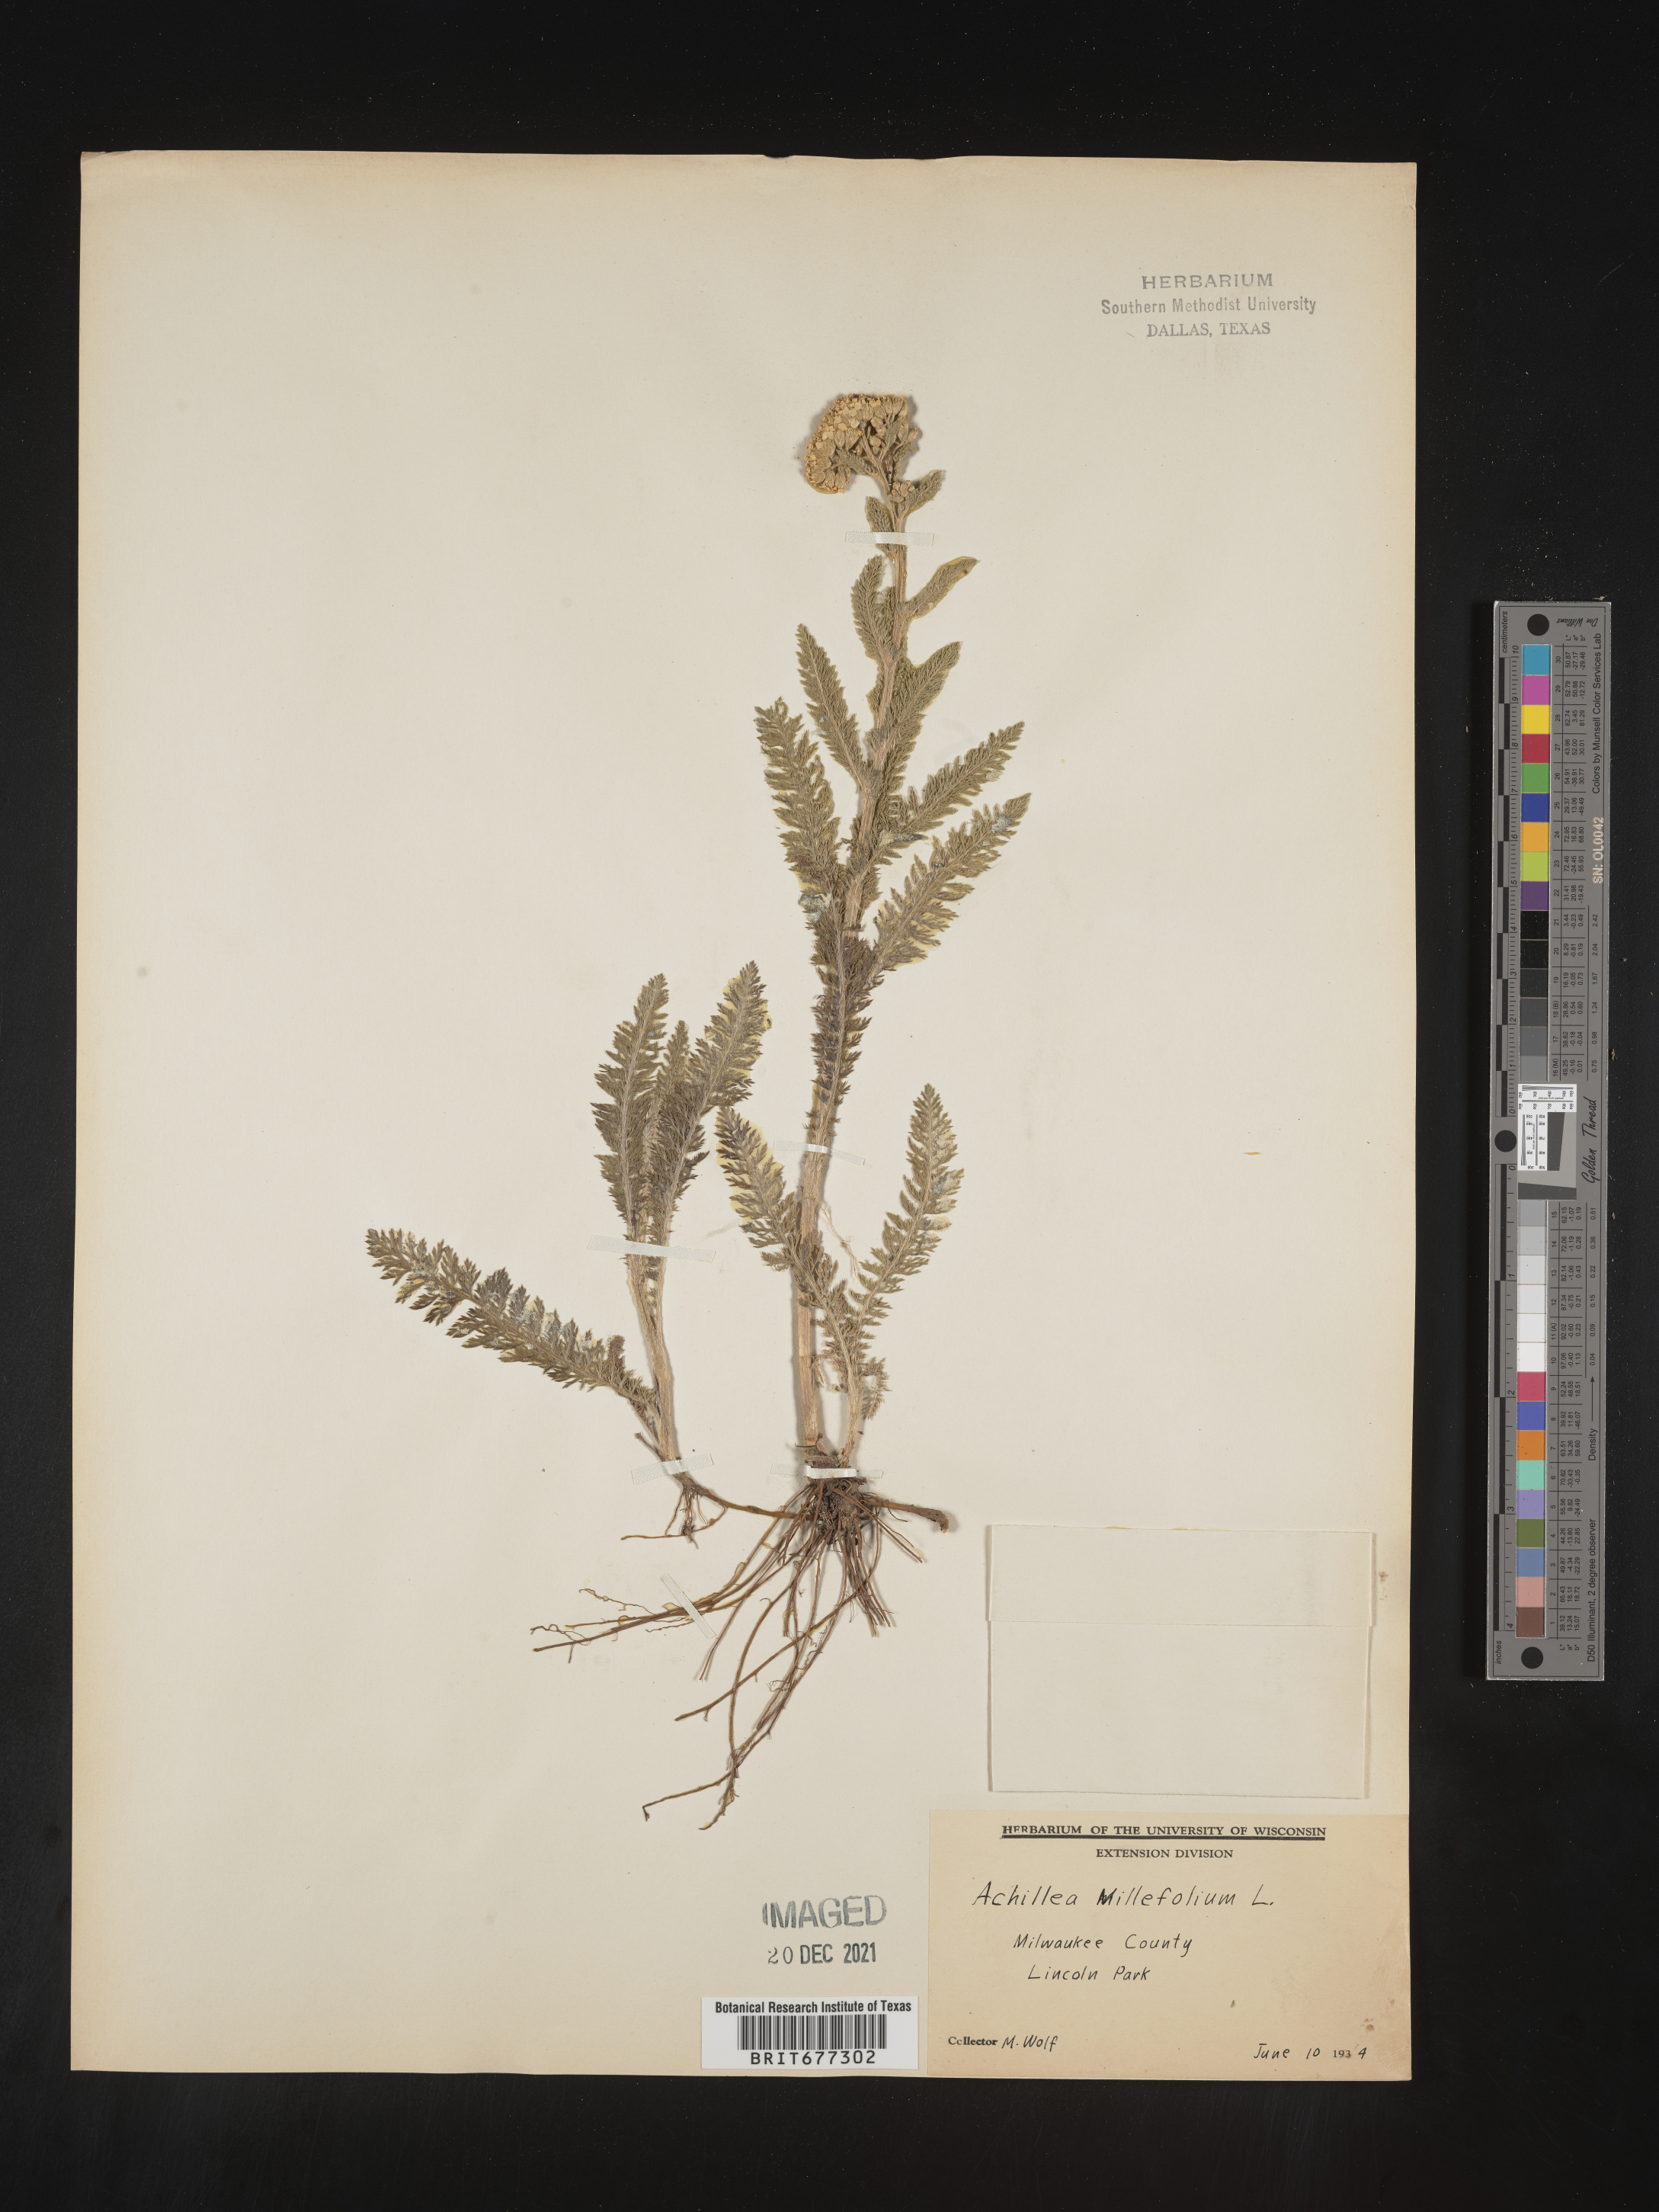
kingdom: Plantae
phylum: Tracheophyta
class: Magnoliopsida
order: Asterales
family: Asteraceae
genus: Achillea
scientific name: Achillea millefolium
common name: Yarrow
